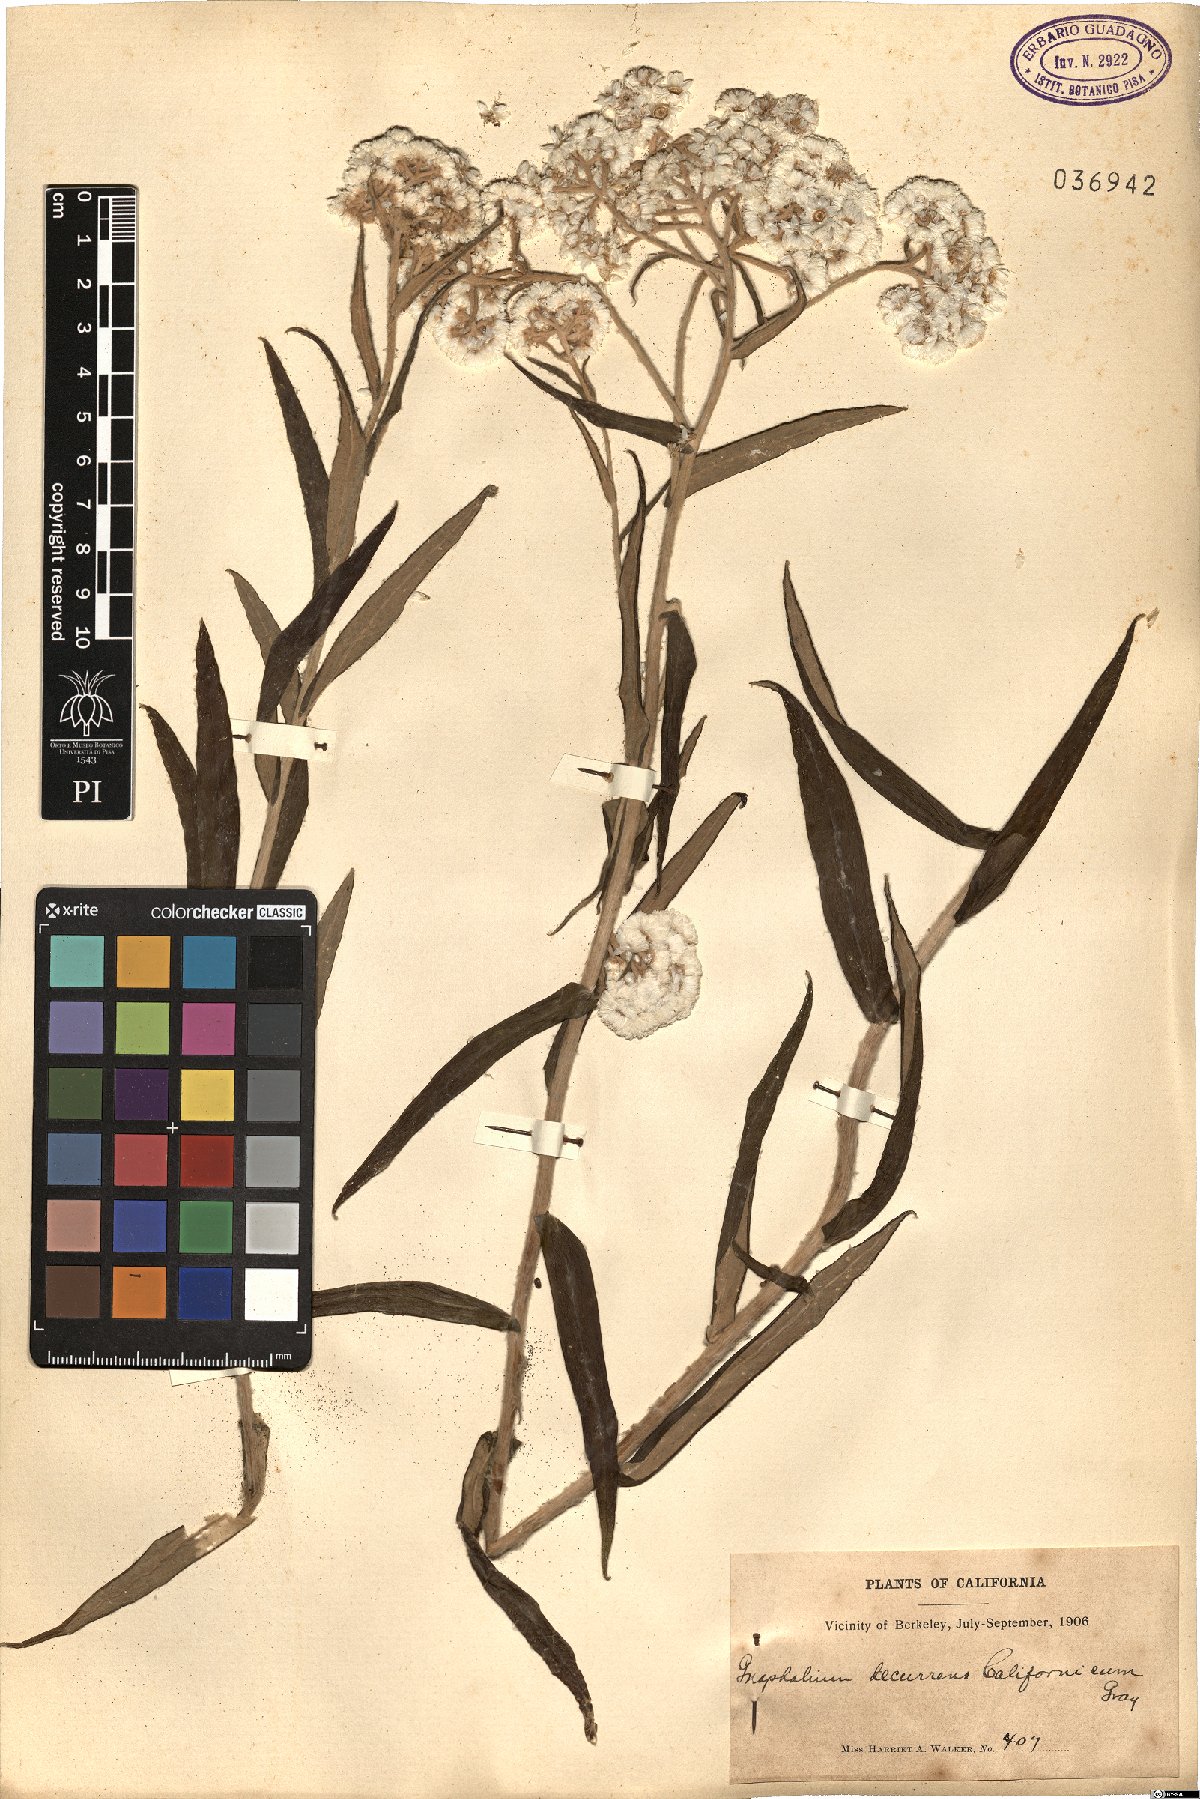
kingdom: Plantae
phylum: Tracheophyta
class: Magnoliopsida
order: Asterales
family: Asteraceae
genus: Pseudognaphalium
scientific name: Pseudognaphalium californicum
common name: California rabbit-tobacco
